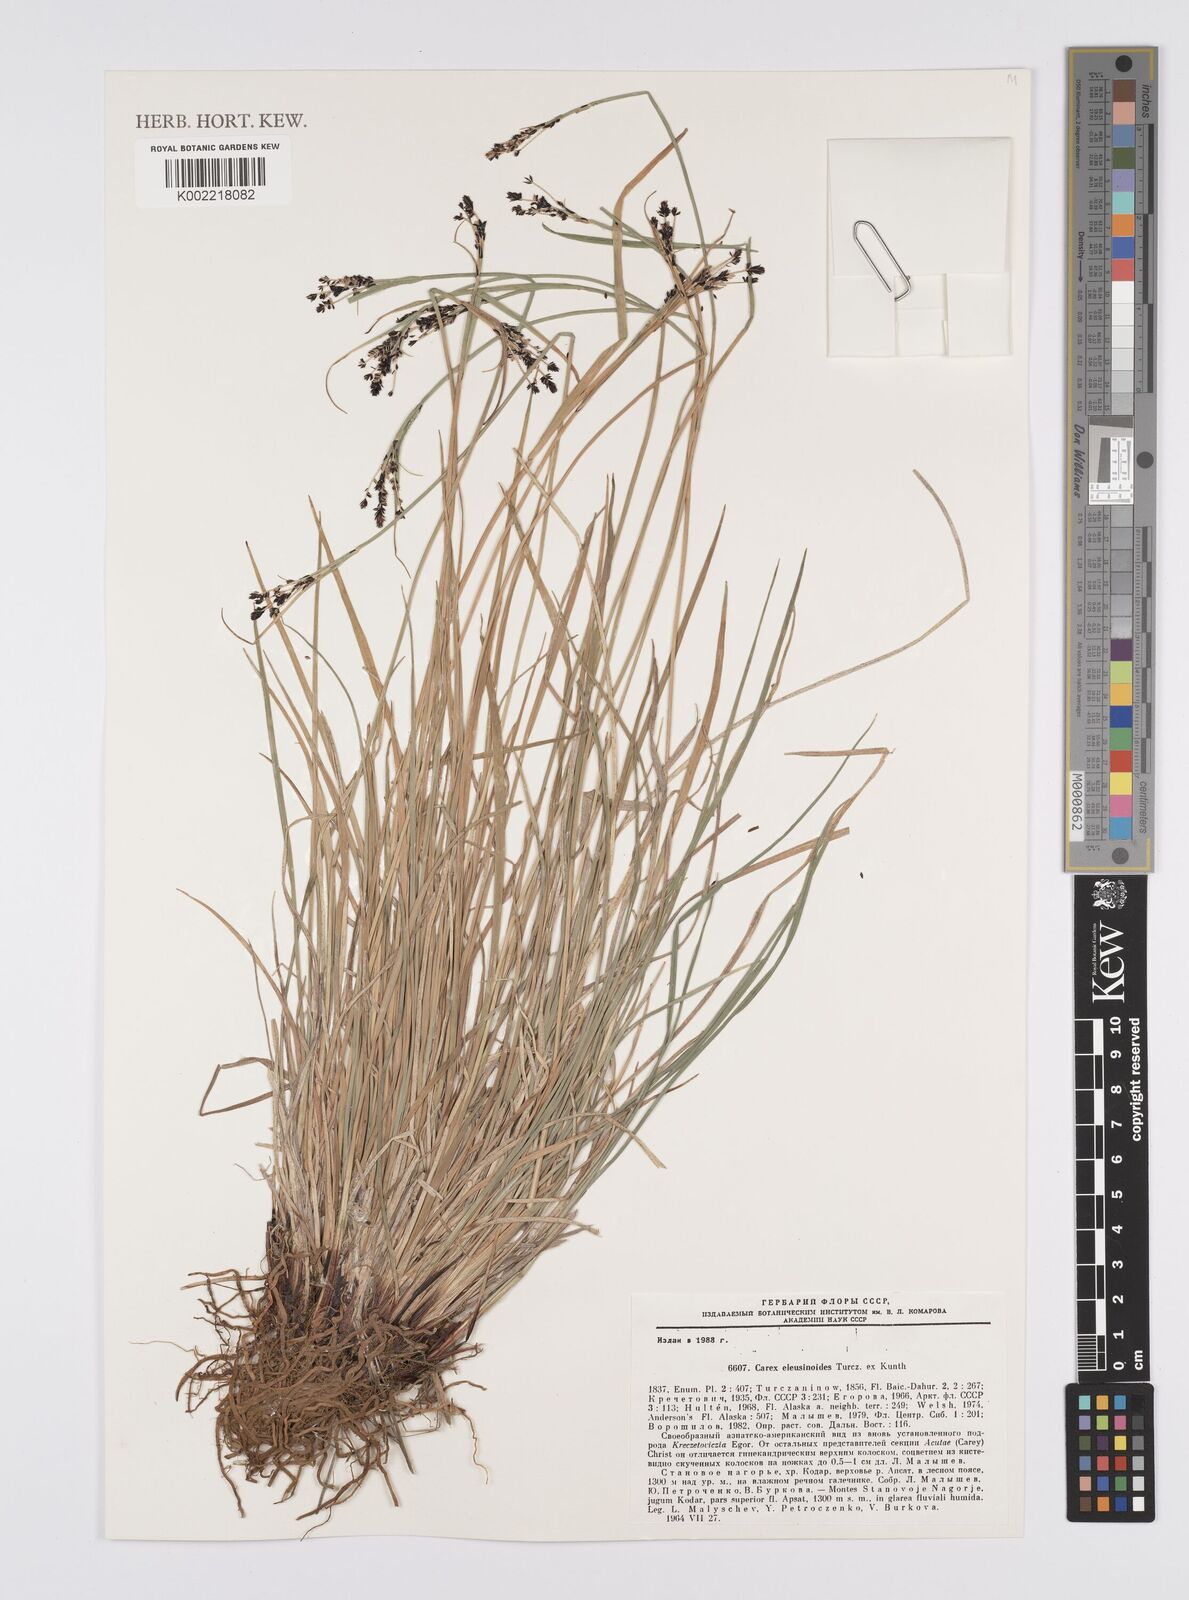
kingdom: Plantae
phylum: Tracheophyta
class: Liliopsida
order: Poales
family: Cyperaceae
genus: Carex
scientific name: Carex eleusinoides
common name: Goosegrass sedge
